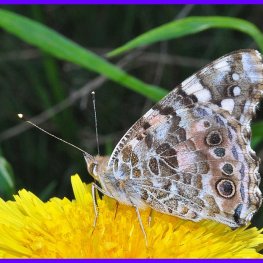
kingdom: Animalia
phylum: Arthropoda
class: Insecta
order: Lepidoptera
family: Nymphalidae
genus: Vanessa
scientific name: Vanessa cardui
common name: Painted Lady
